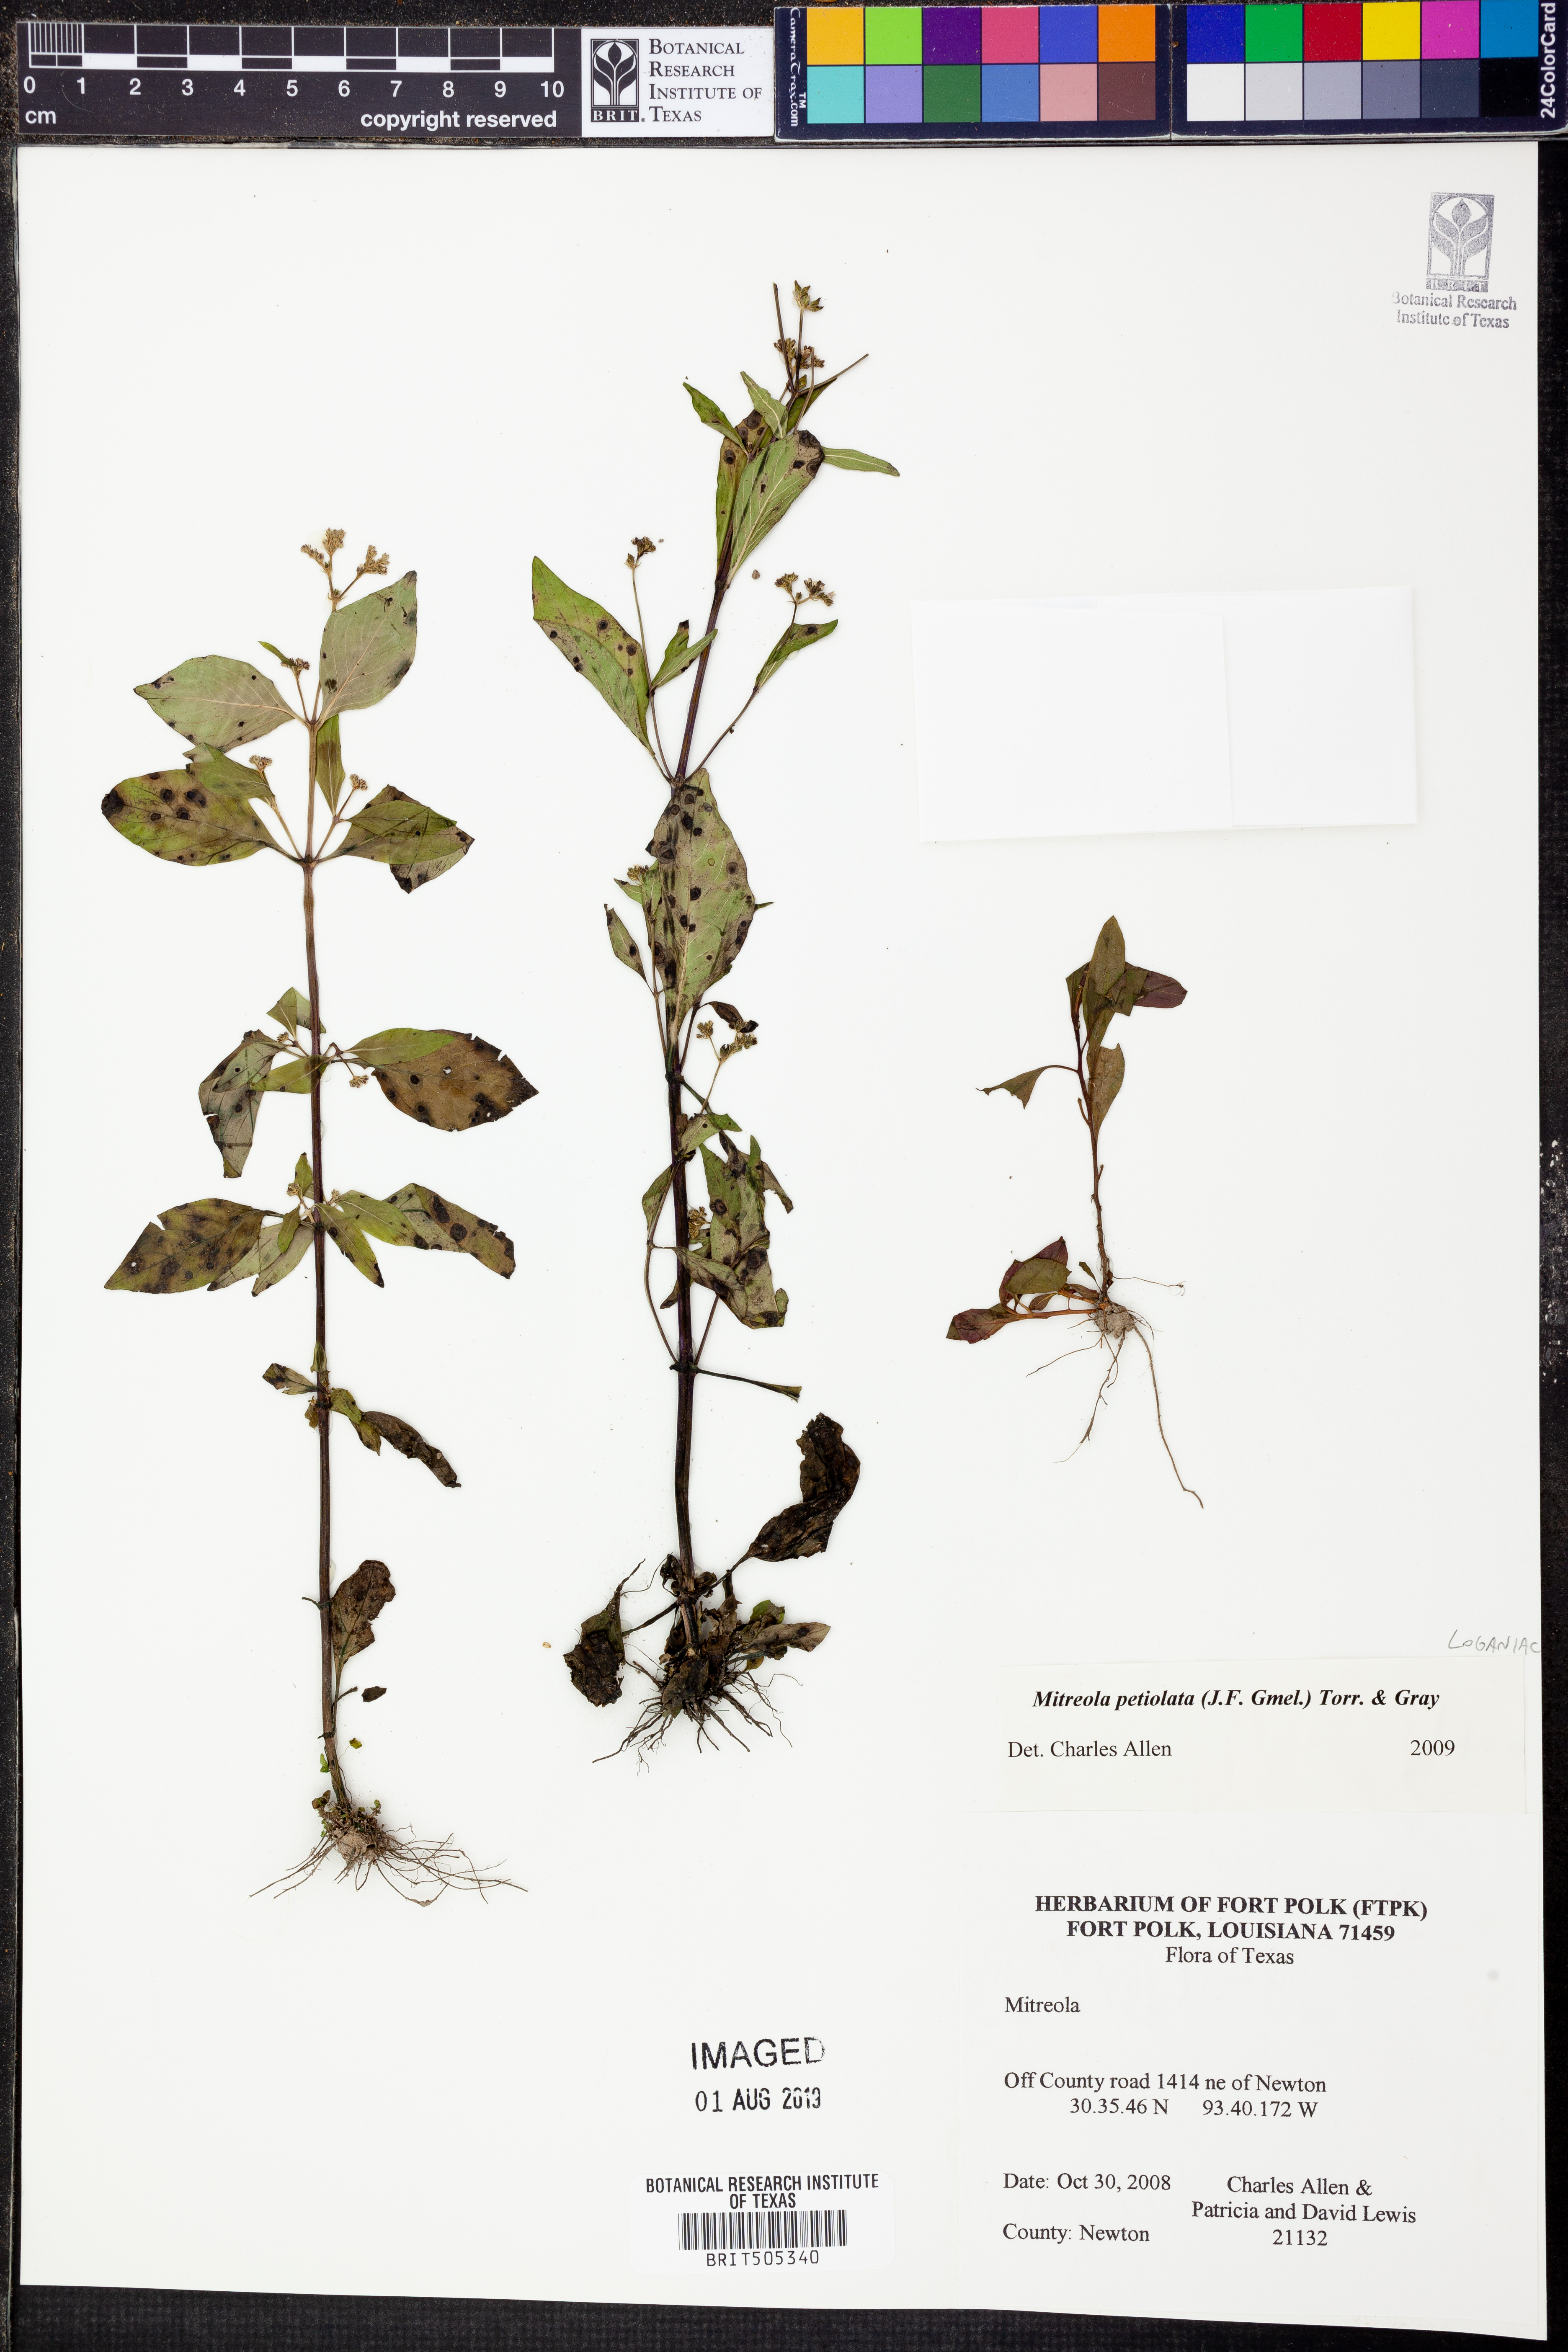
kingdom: Plantae
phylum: Tracheophyta
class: Magnoliopsida
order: Gentianales
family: Loganiaceae
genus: Mitreola
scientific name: Mitreola petiolata
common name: Lax hornpod
